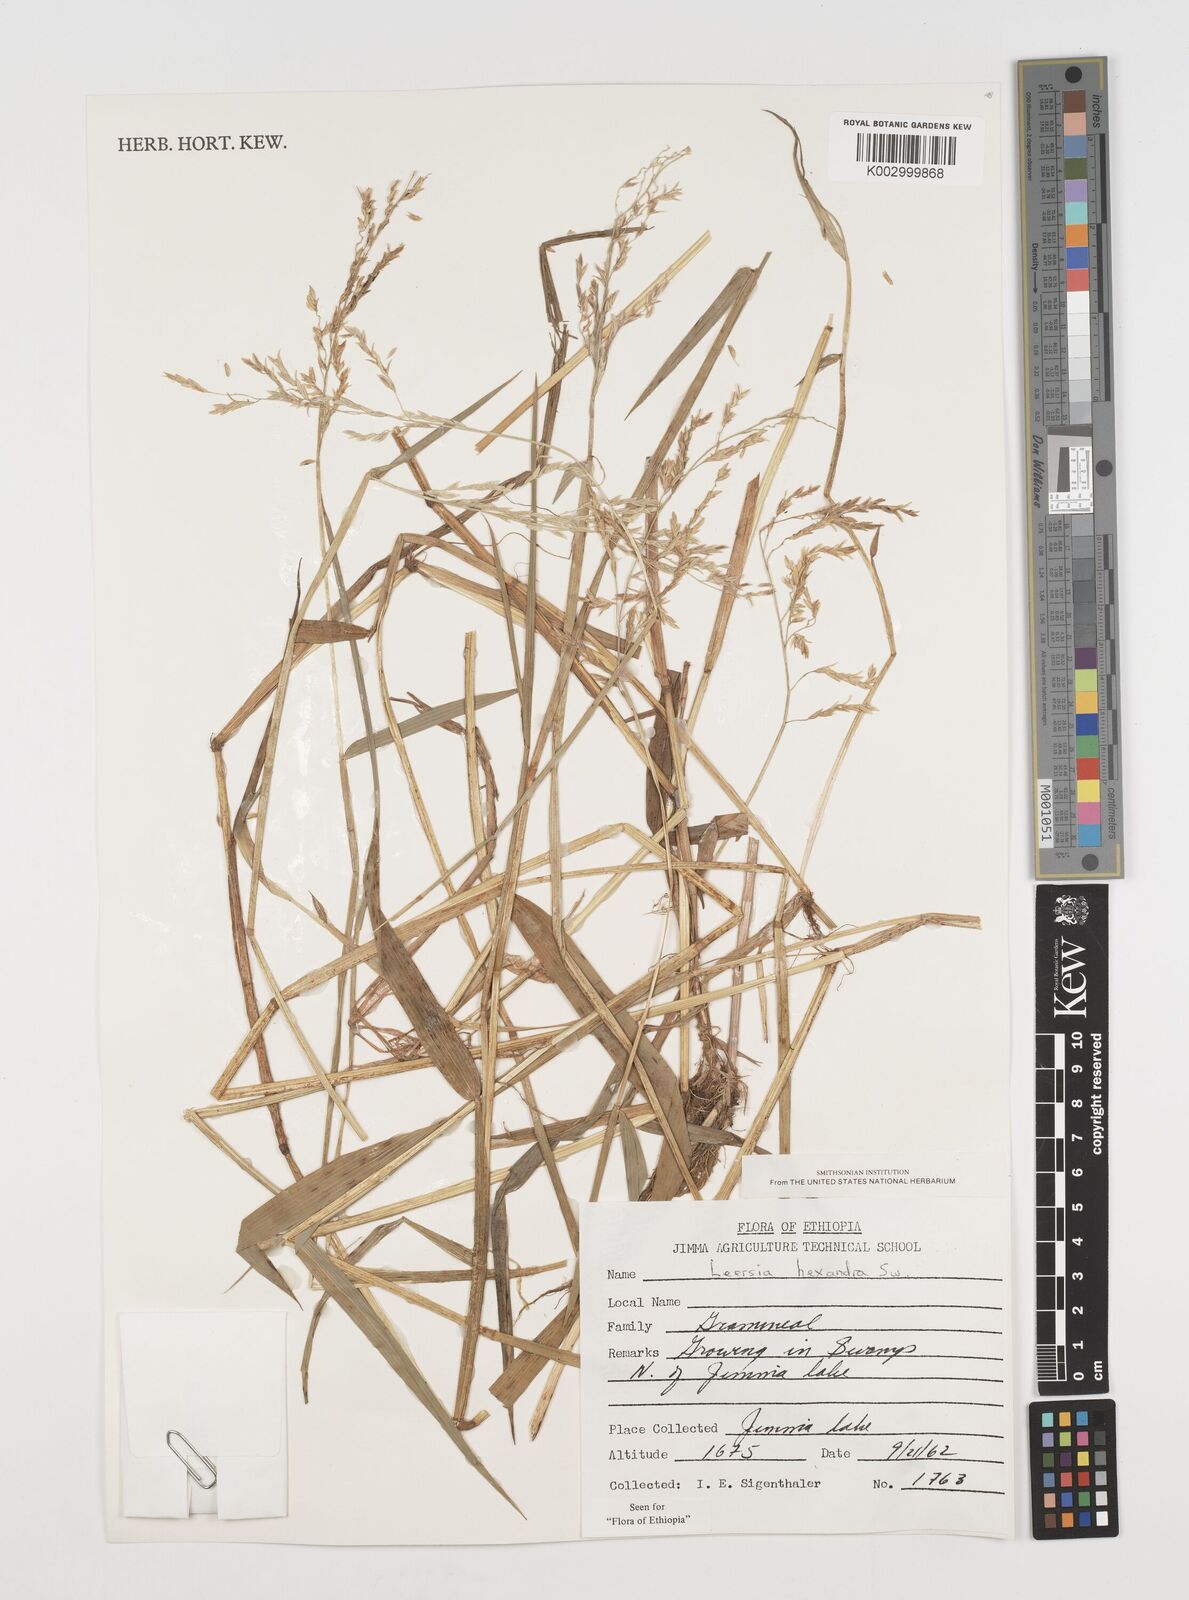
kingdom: Plantae
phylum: Tracheophyta
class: Liliopsida
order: Poales
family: Poaceae
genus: Leersia
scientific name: Leersia hexandra
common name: Southern cut grass
